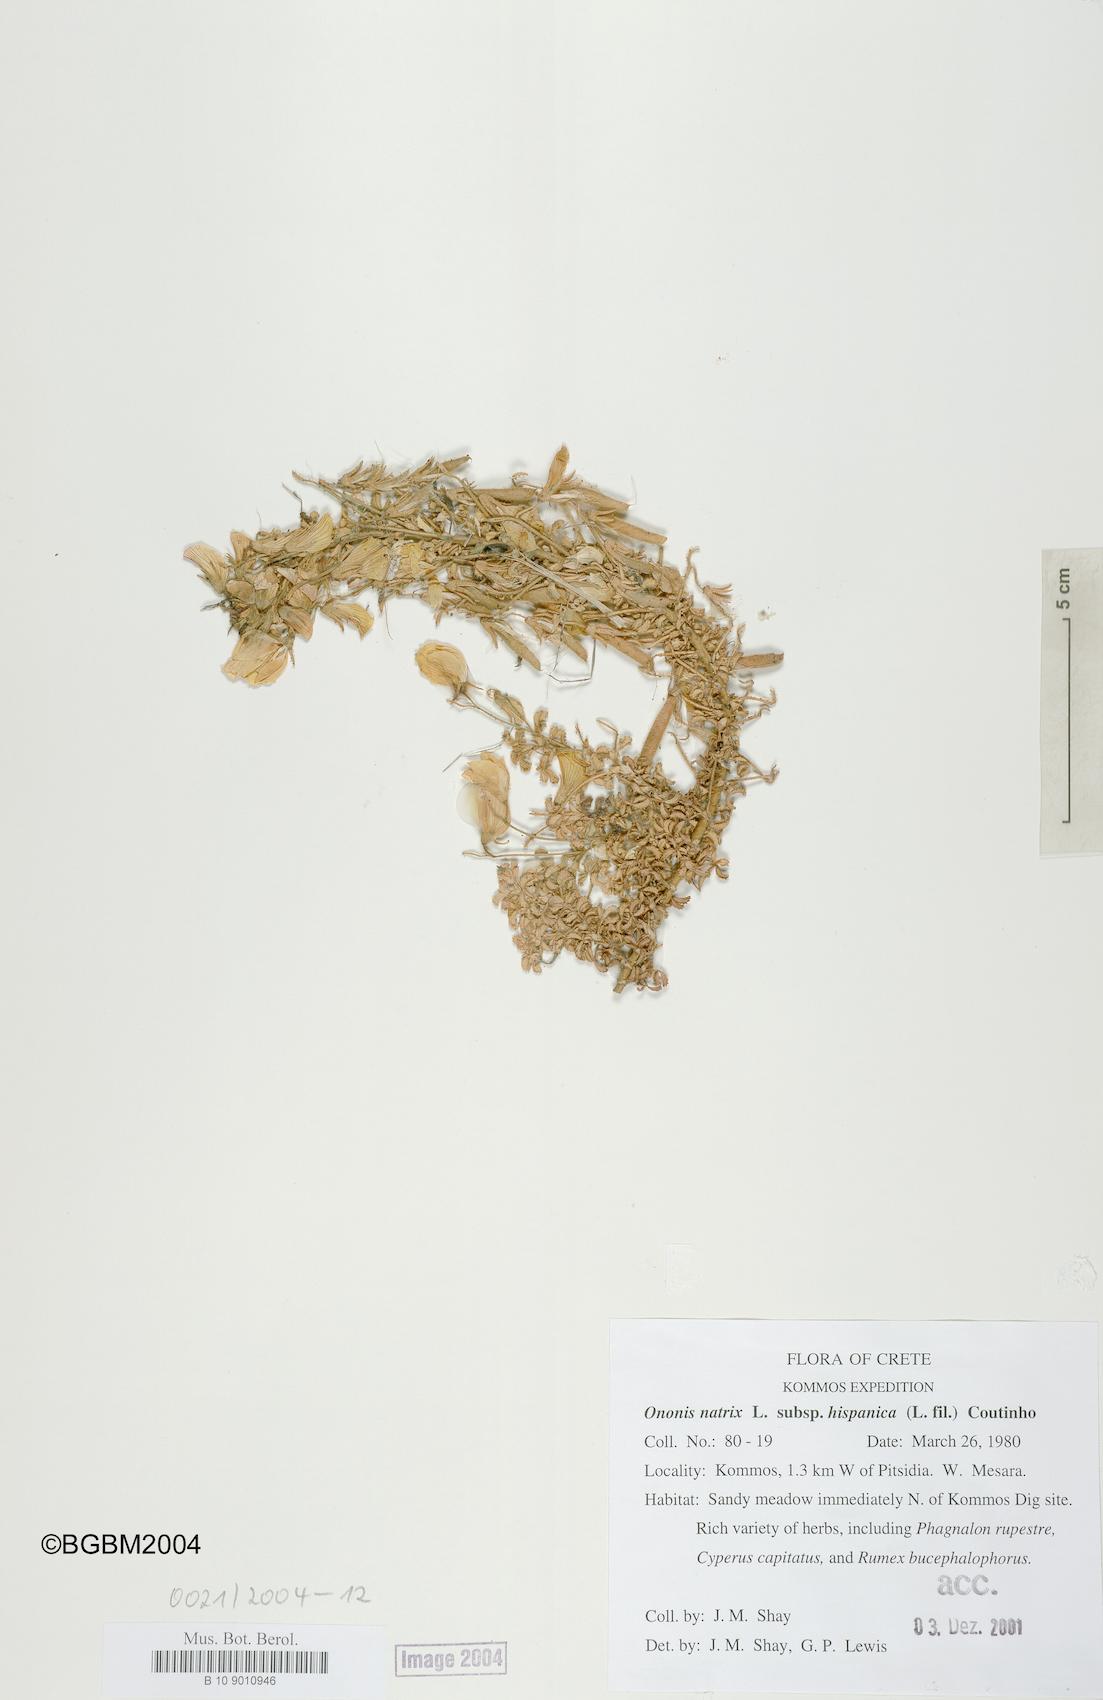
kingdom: Plantae
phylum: Tracheophyta
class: Magnoliopsida
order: Fabales
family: Fabaceae
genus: Ononis
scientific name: Ononis natrix
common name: Yellow restharrow
